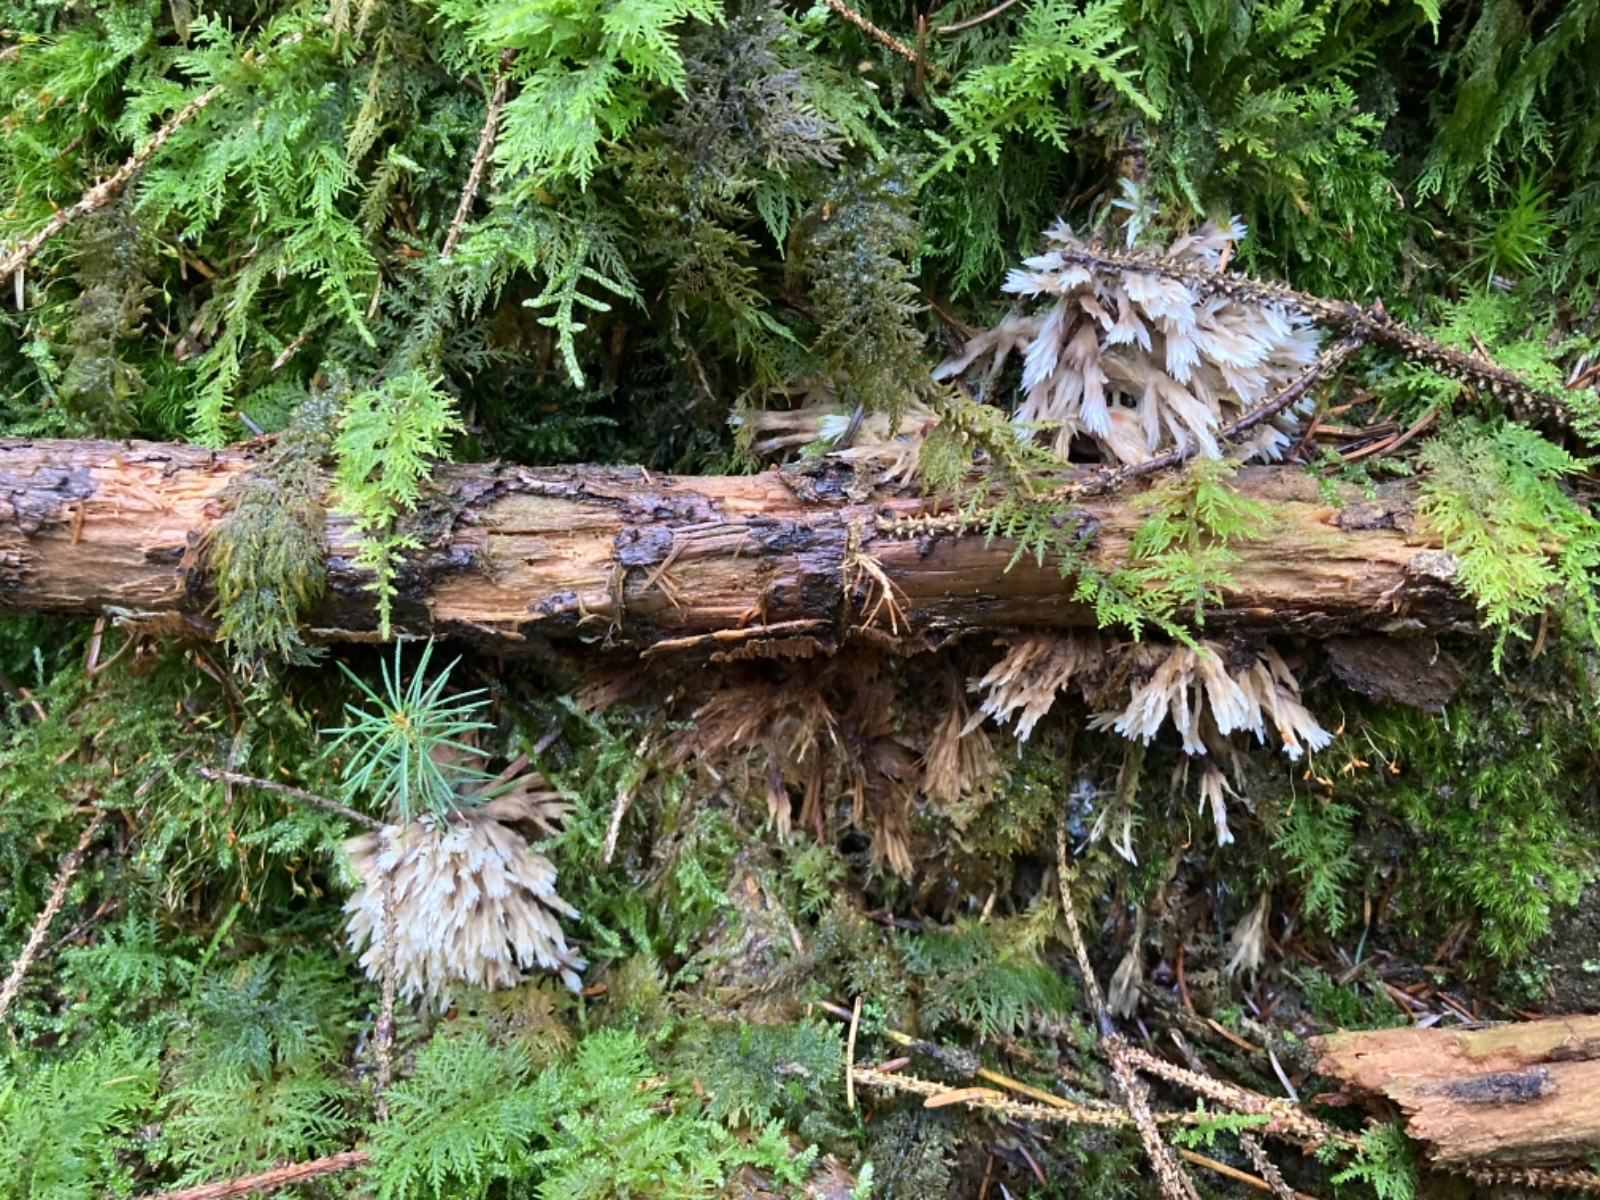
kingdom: Fungi
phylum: Basidiomycota
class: Agaricomycetes
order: Thelephorales
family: Thelephoraceae
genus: Thelephora
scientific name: Thelephora penicillata
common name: fladtrådt frynsesvamp
